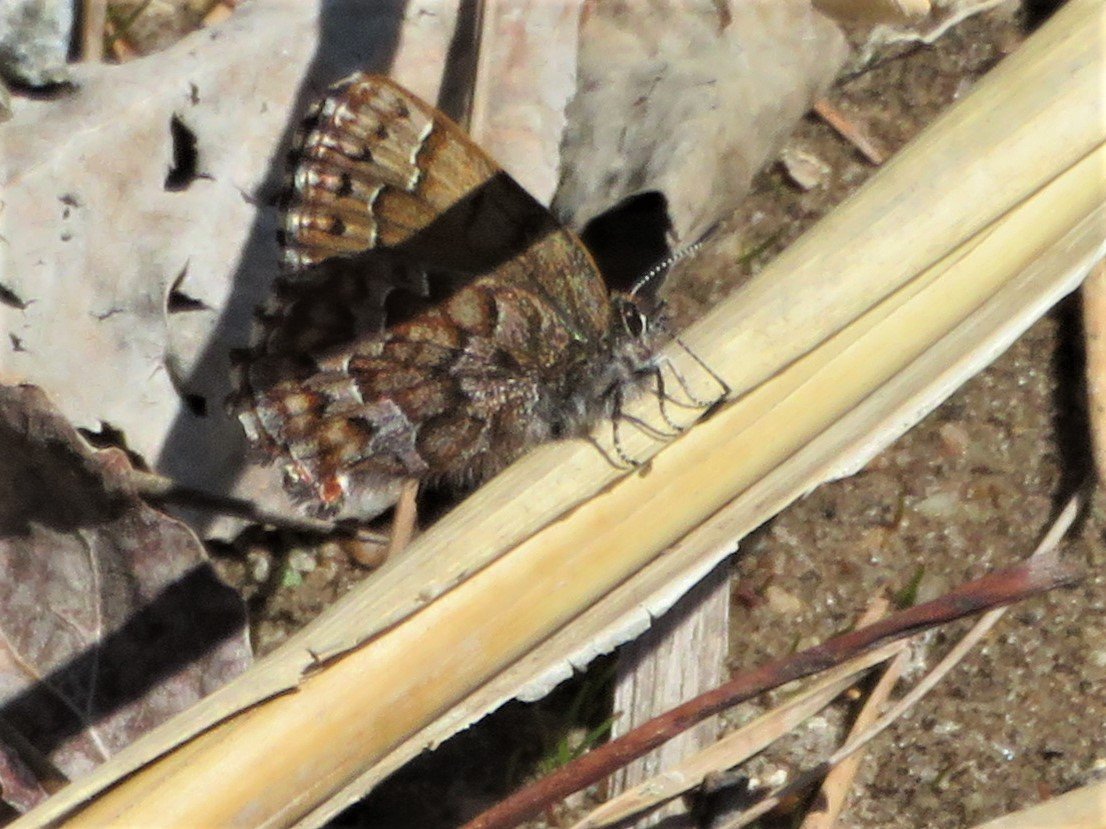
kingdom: Animalia
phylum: Arthropoda
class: Insecta
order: Lepidoptera
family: Lycaenidae
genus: Incisalia
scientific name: Incisalia niphon
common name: Eastern Pine Elfin
